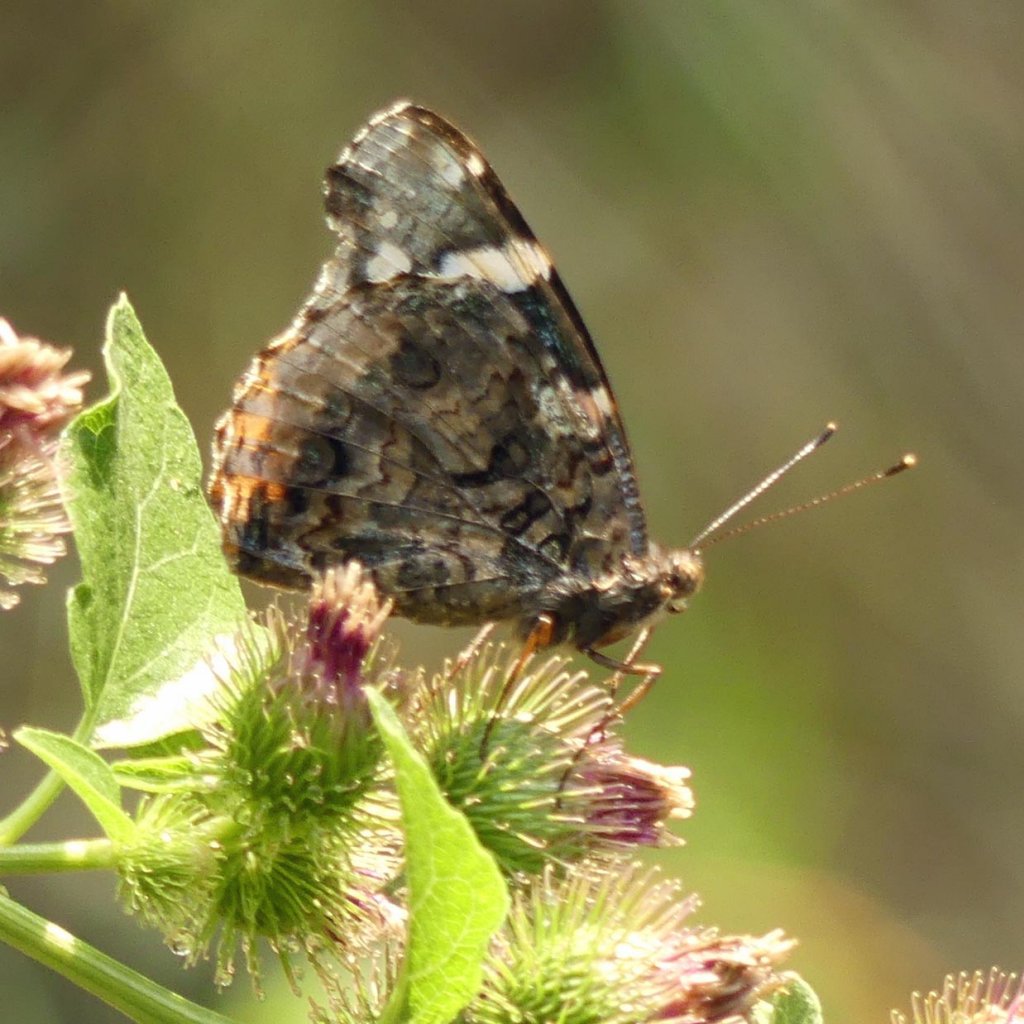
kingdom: Animalia
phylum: Arthropoda
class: Insecta
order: Lepidoptera
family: Nymphalidae
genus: Vanessa
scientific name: Vanessa atalanta
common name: Red Admiral
